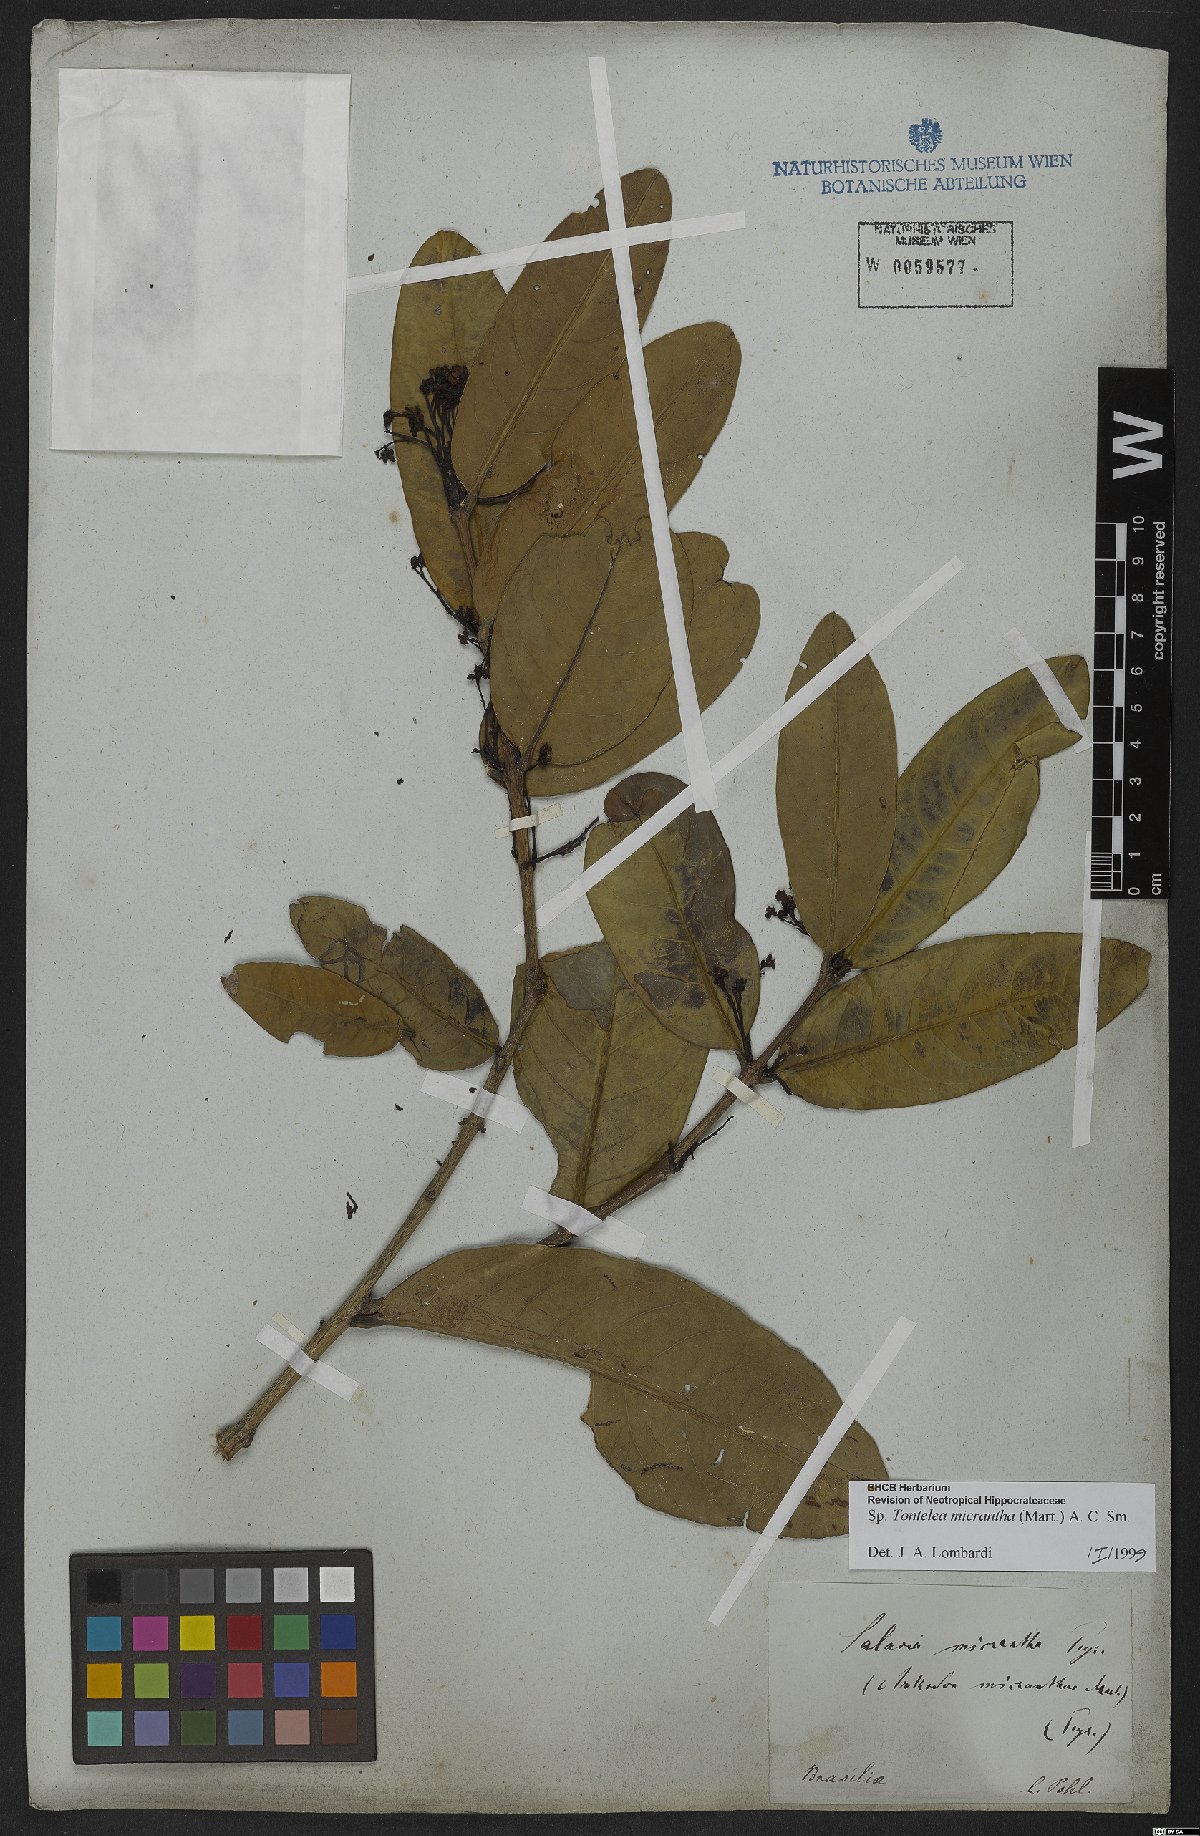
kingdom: Plantae
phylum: Tracheophyta
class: Magnoliopsida
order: Celastrales
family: Celastraceae
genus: Tontelea
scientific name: Tontelea micrantha
